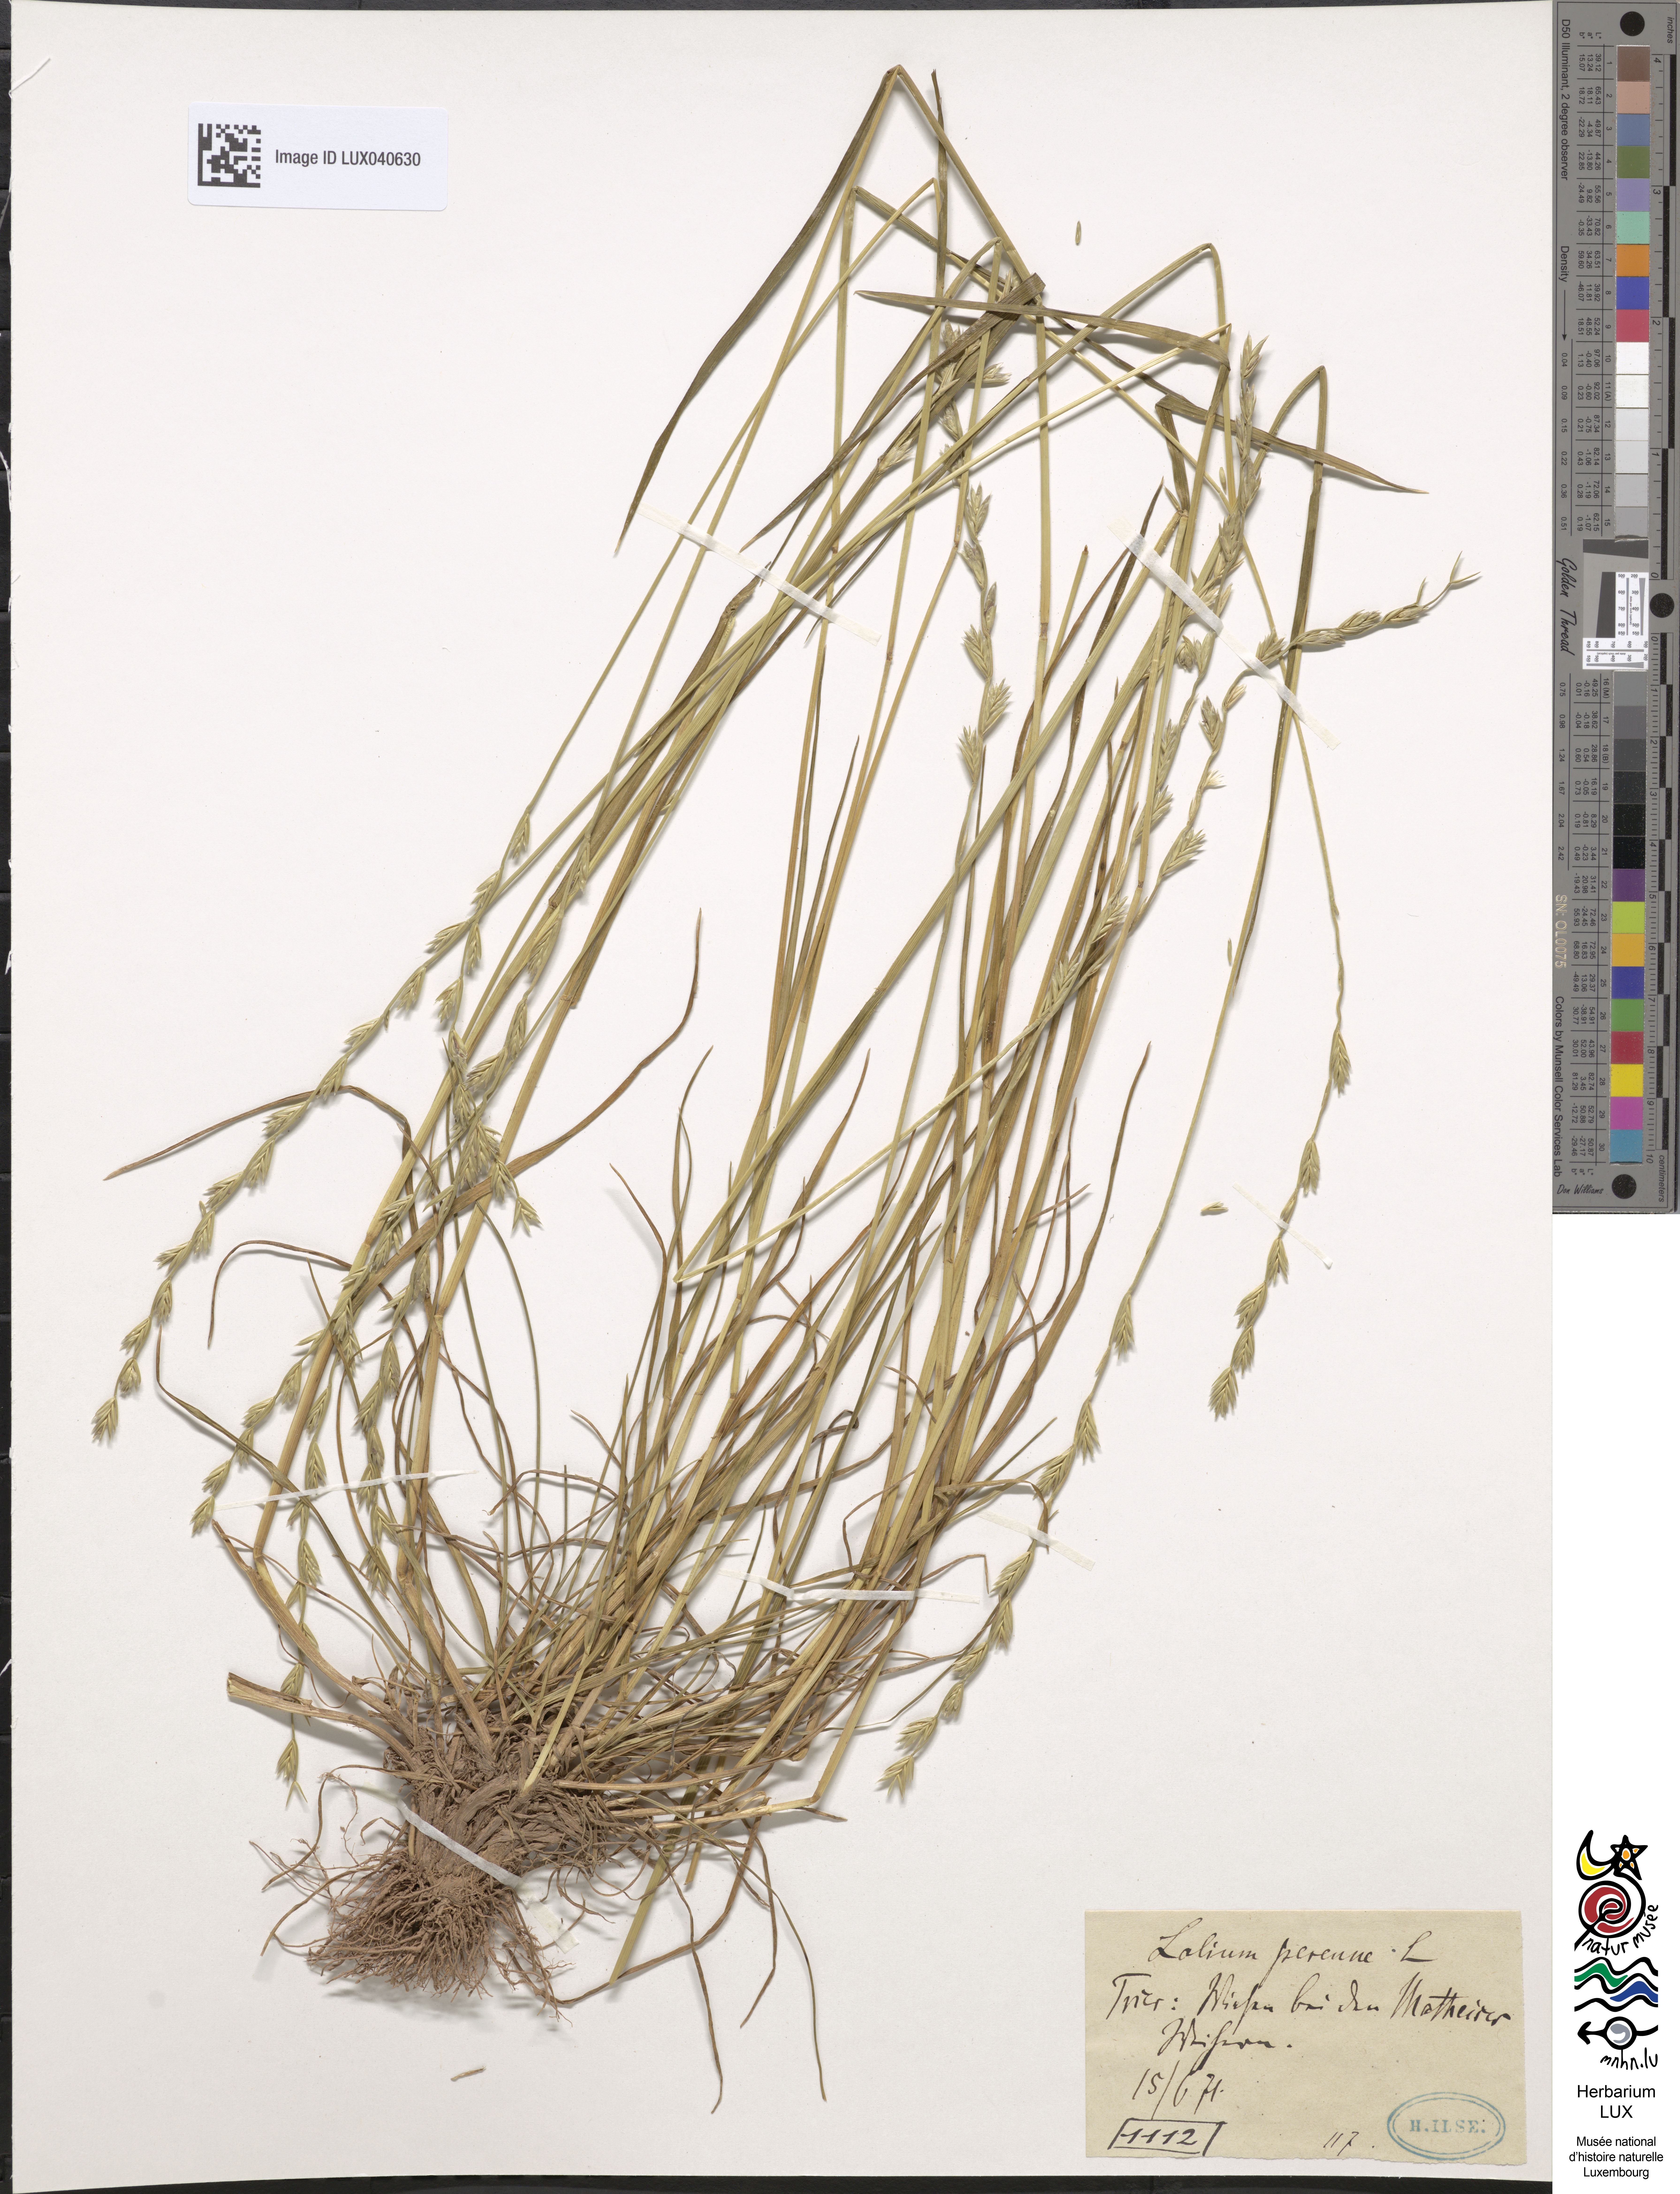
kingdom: Plantae
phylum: Tracheophyta
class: Liliopsida
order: Poales
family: Poaceae
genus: Lolium
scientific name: Lolium perenne
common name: Perennial ryegrass
